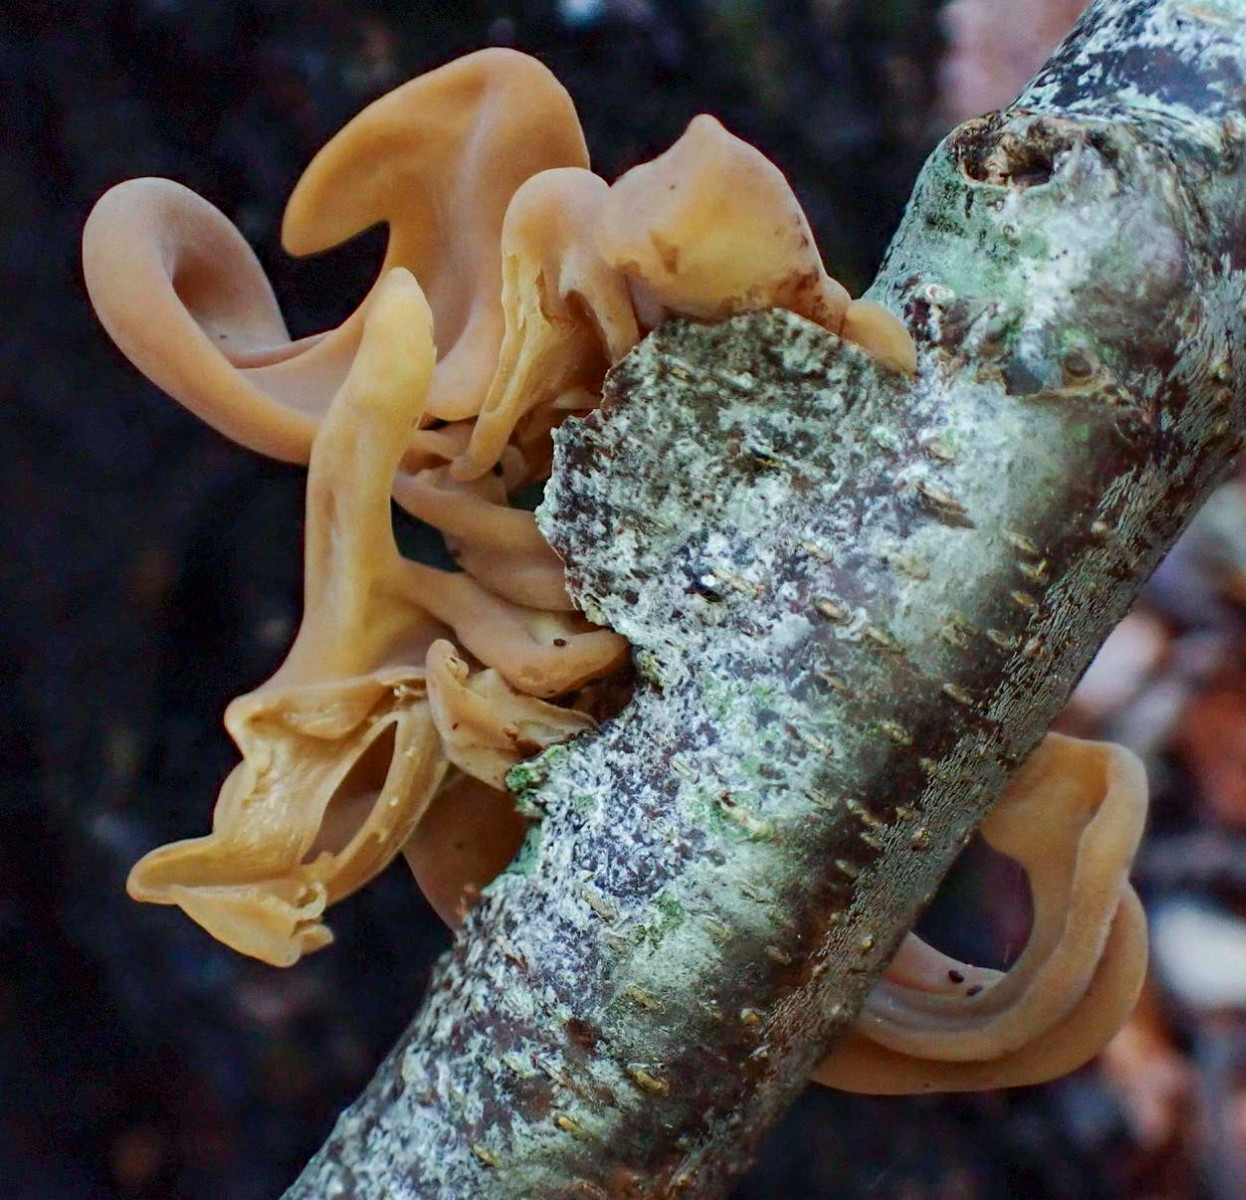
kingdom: Fungi
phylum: Basidiomycota
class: Agaricomycetes
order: Agaricales
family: Typhulaceae
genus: Typhula
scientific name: Typhula contorta
